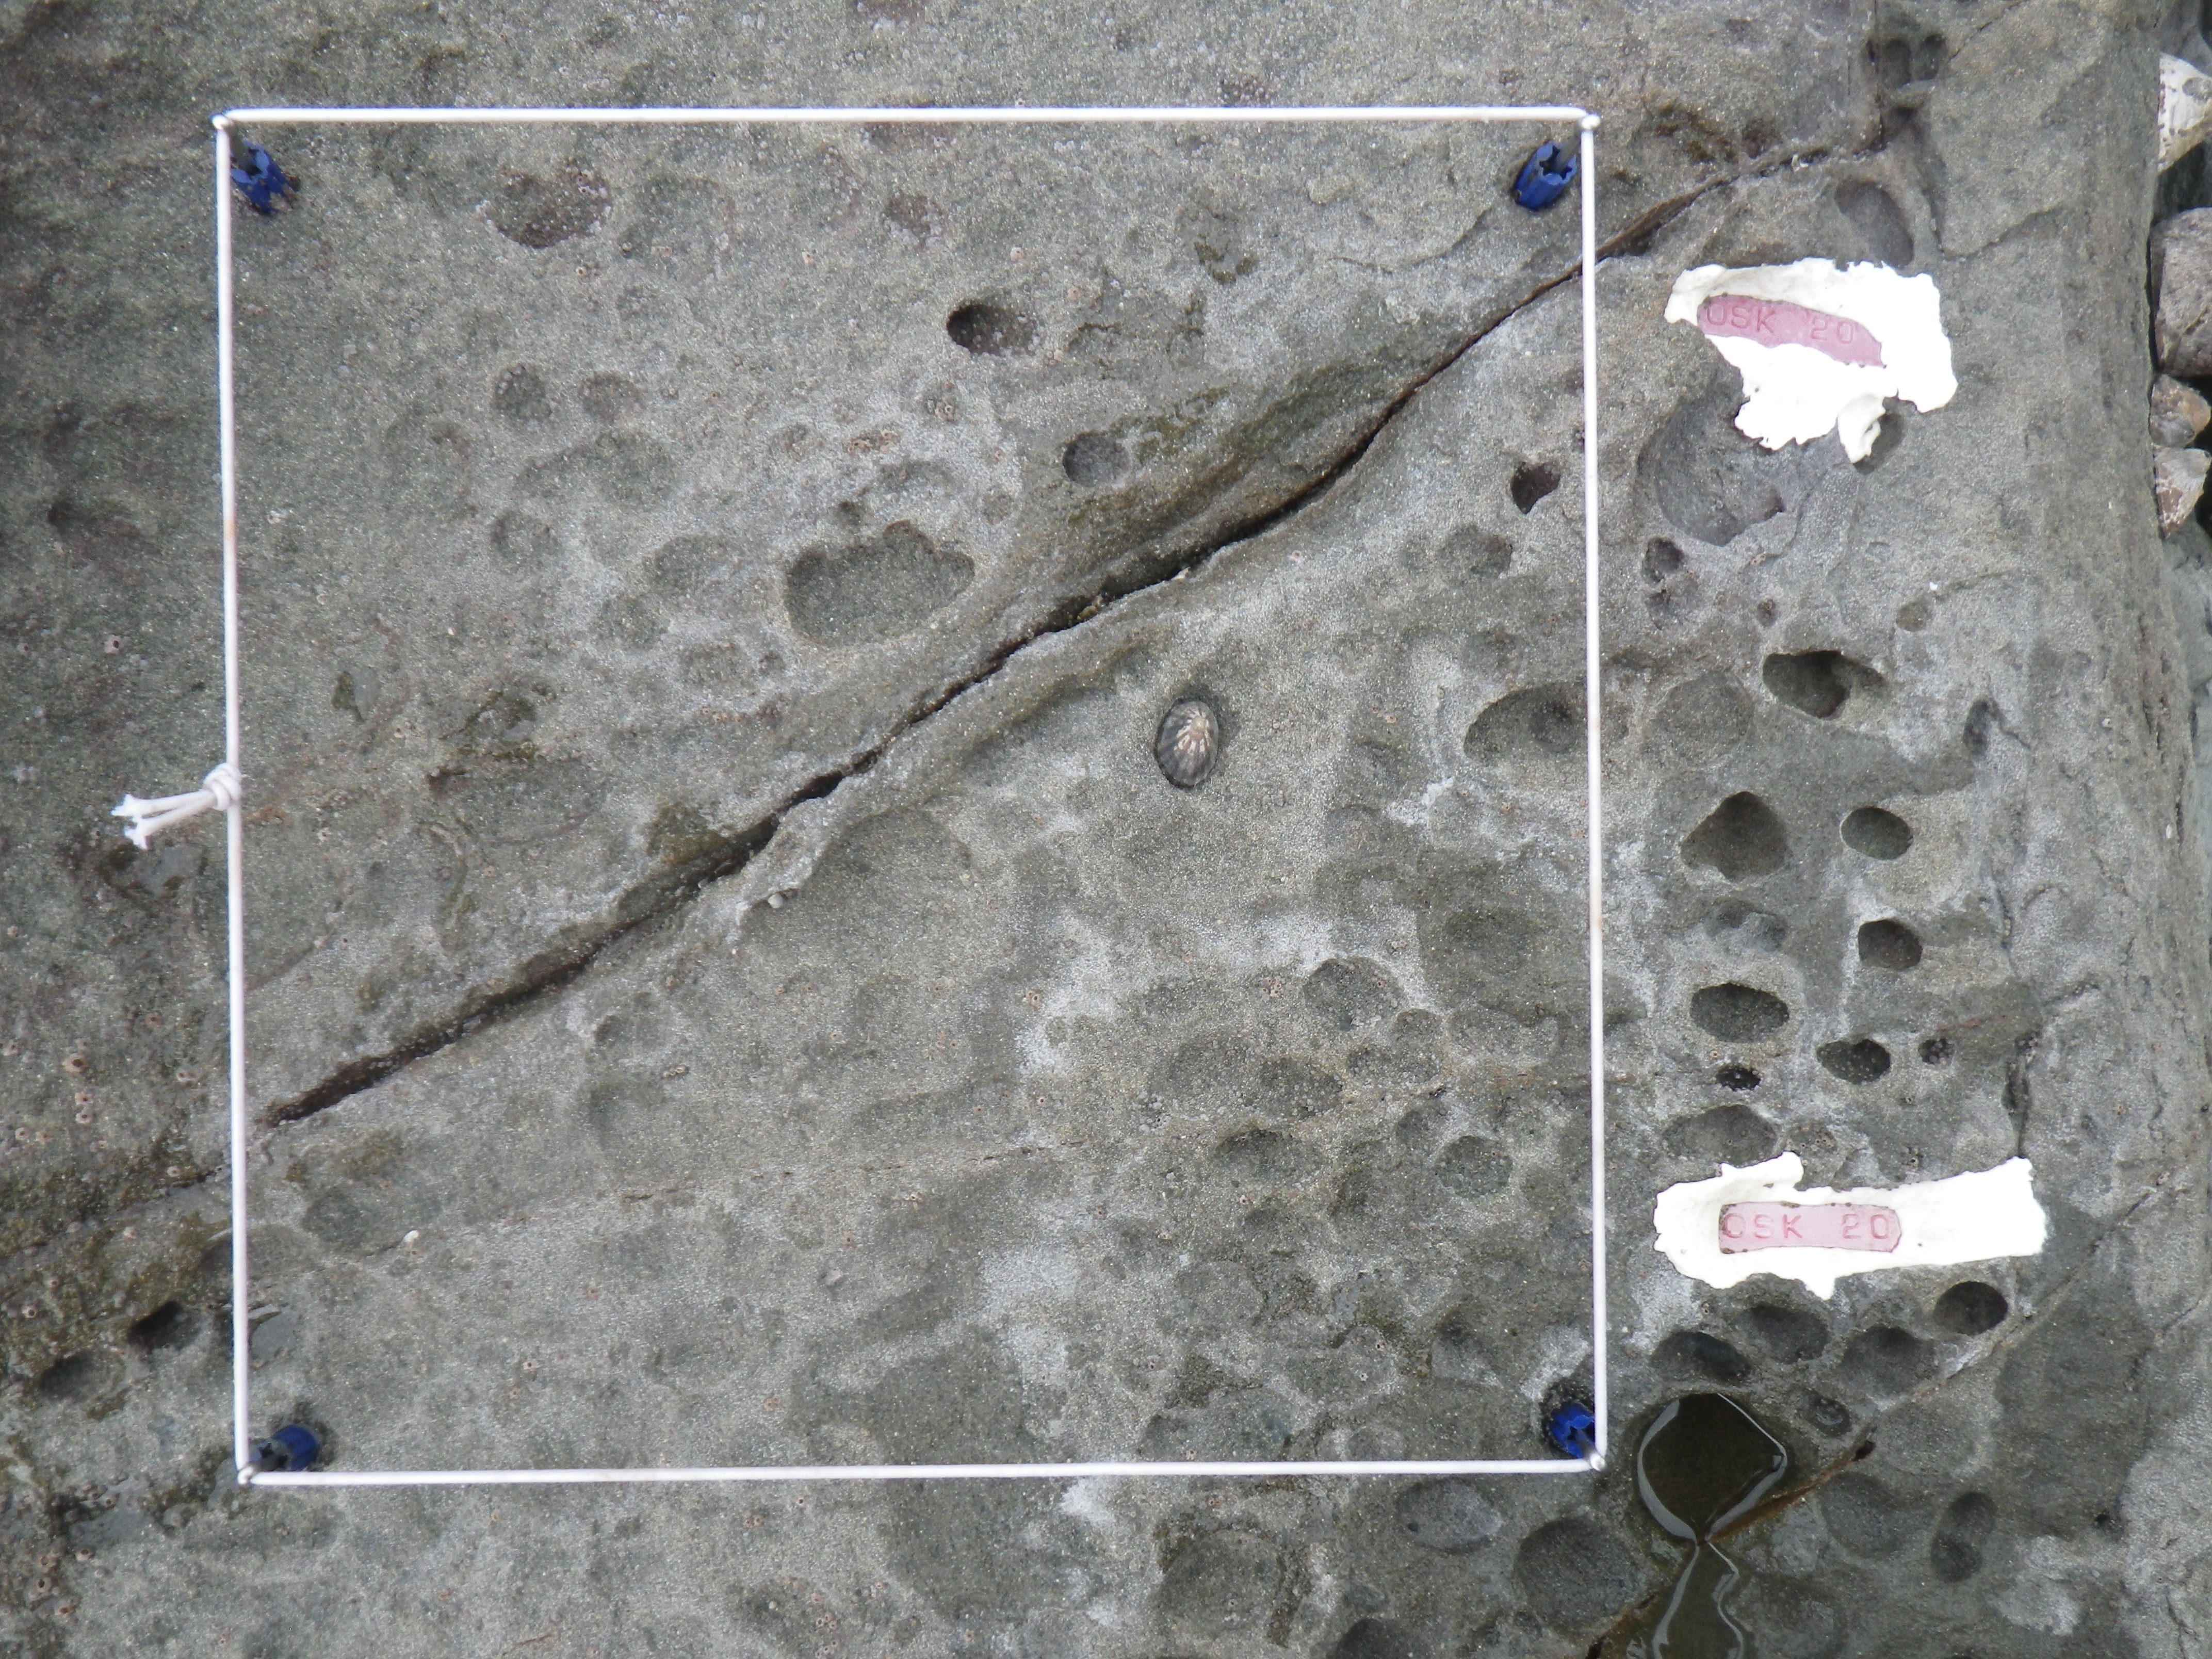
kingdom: Animalia
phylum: Arthropoda
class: Maxillopoda
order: Sessilia
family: Chthamalidae
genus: Chthamalus
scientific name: Chthamalus challengeri
